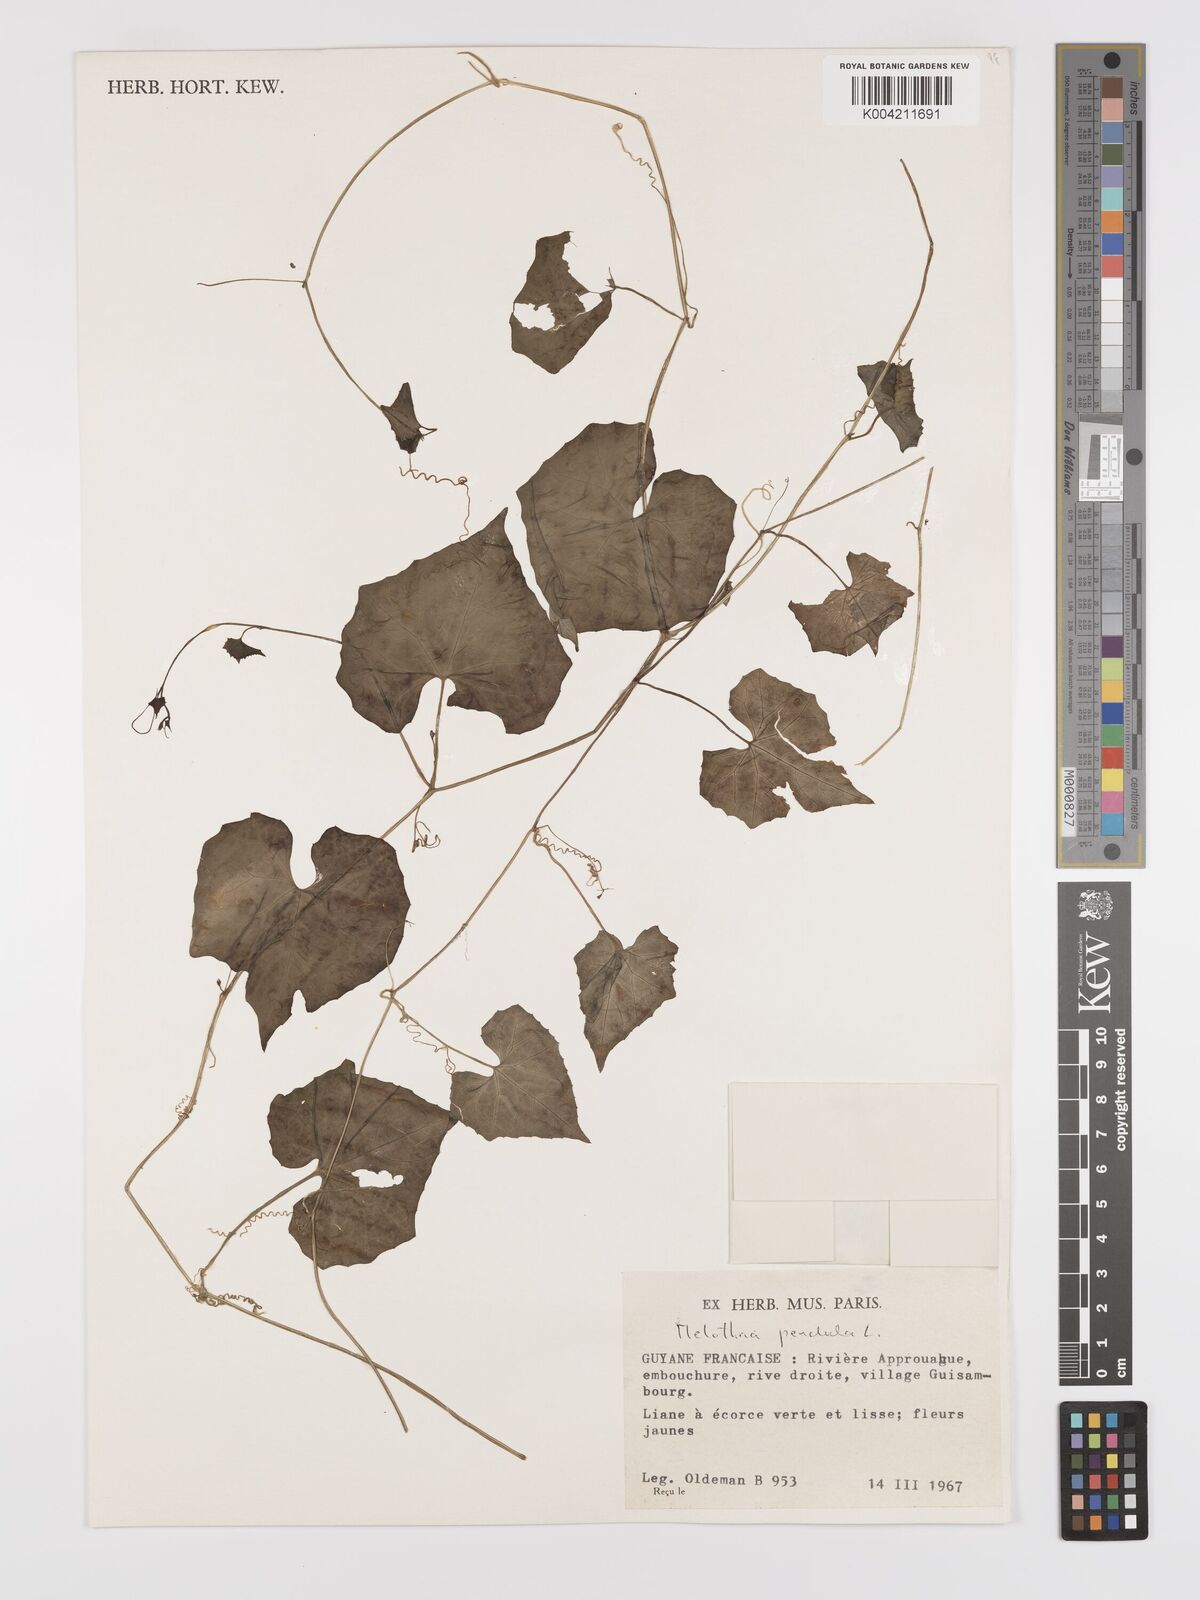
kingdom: Plantae
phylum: Tracheophyta
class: Magnoliopsida
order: Cucurbitales
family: Cucurbitaceae
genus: Melothria
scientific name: Melothria pendula
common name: Creeping-cucumber
